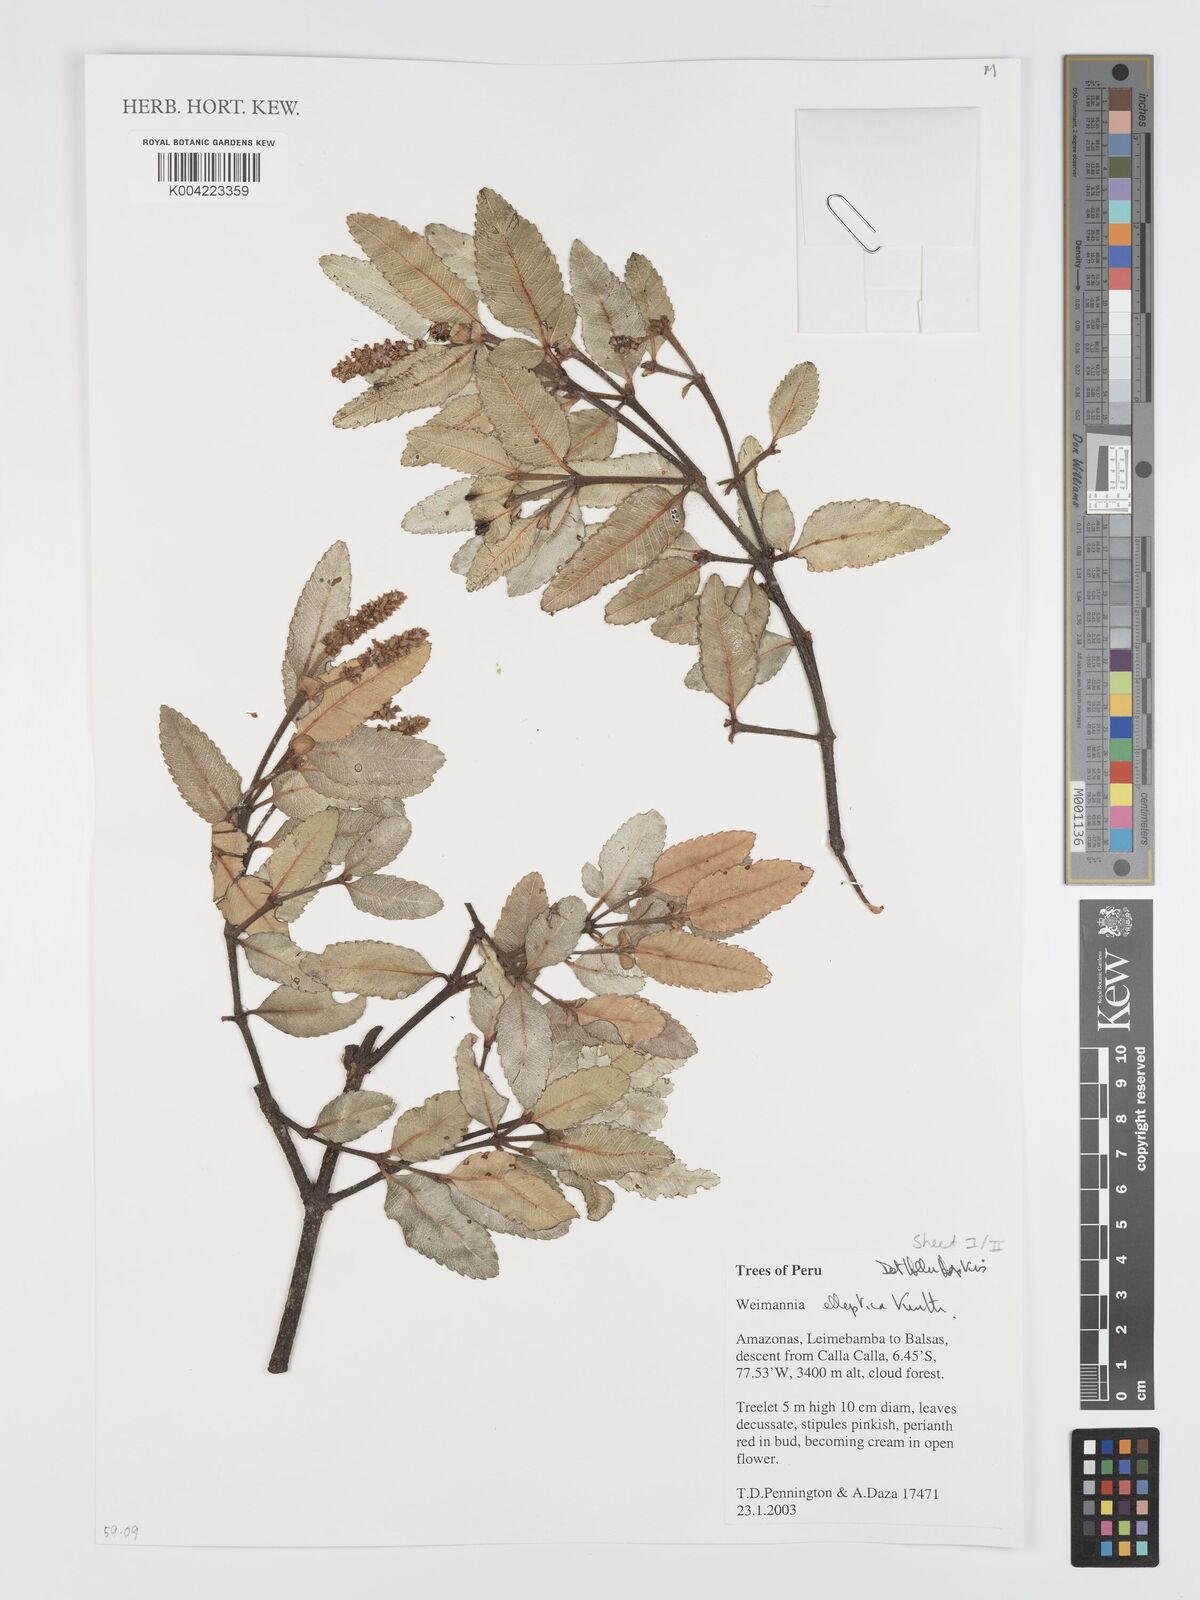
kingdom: Plantae
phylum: Tracheophyta
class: Magnoliopsida
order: Oxalidales
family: Cunoniaceae
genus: Weinmannia
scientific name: Weinmannia elliptica
